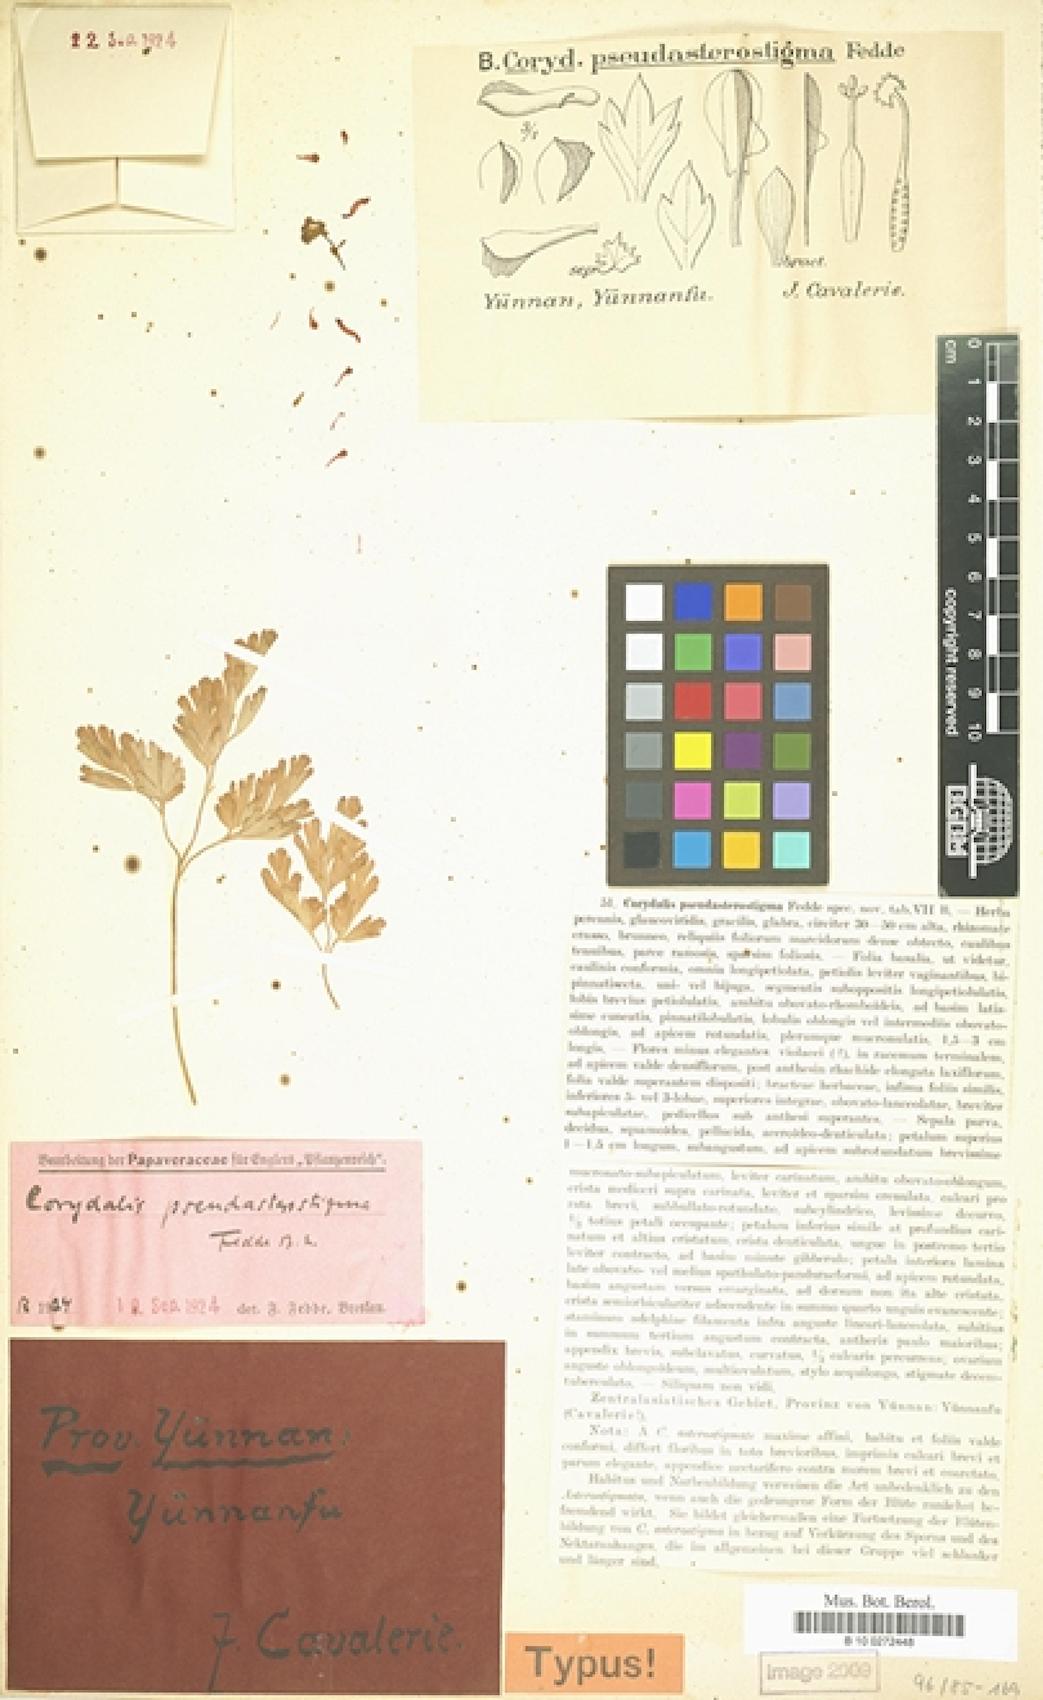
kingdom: Plantae
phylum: Tracheophyta
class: Magnoliopsida
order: Ranunculales
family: Papaveraceae
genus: Corydalis
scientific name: Corydalis duclouxii
